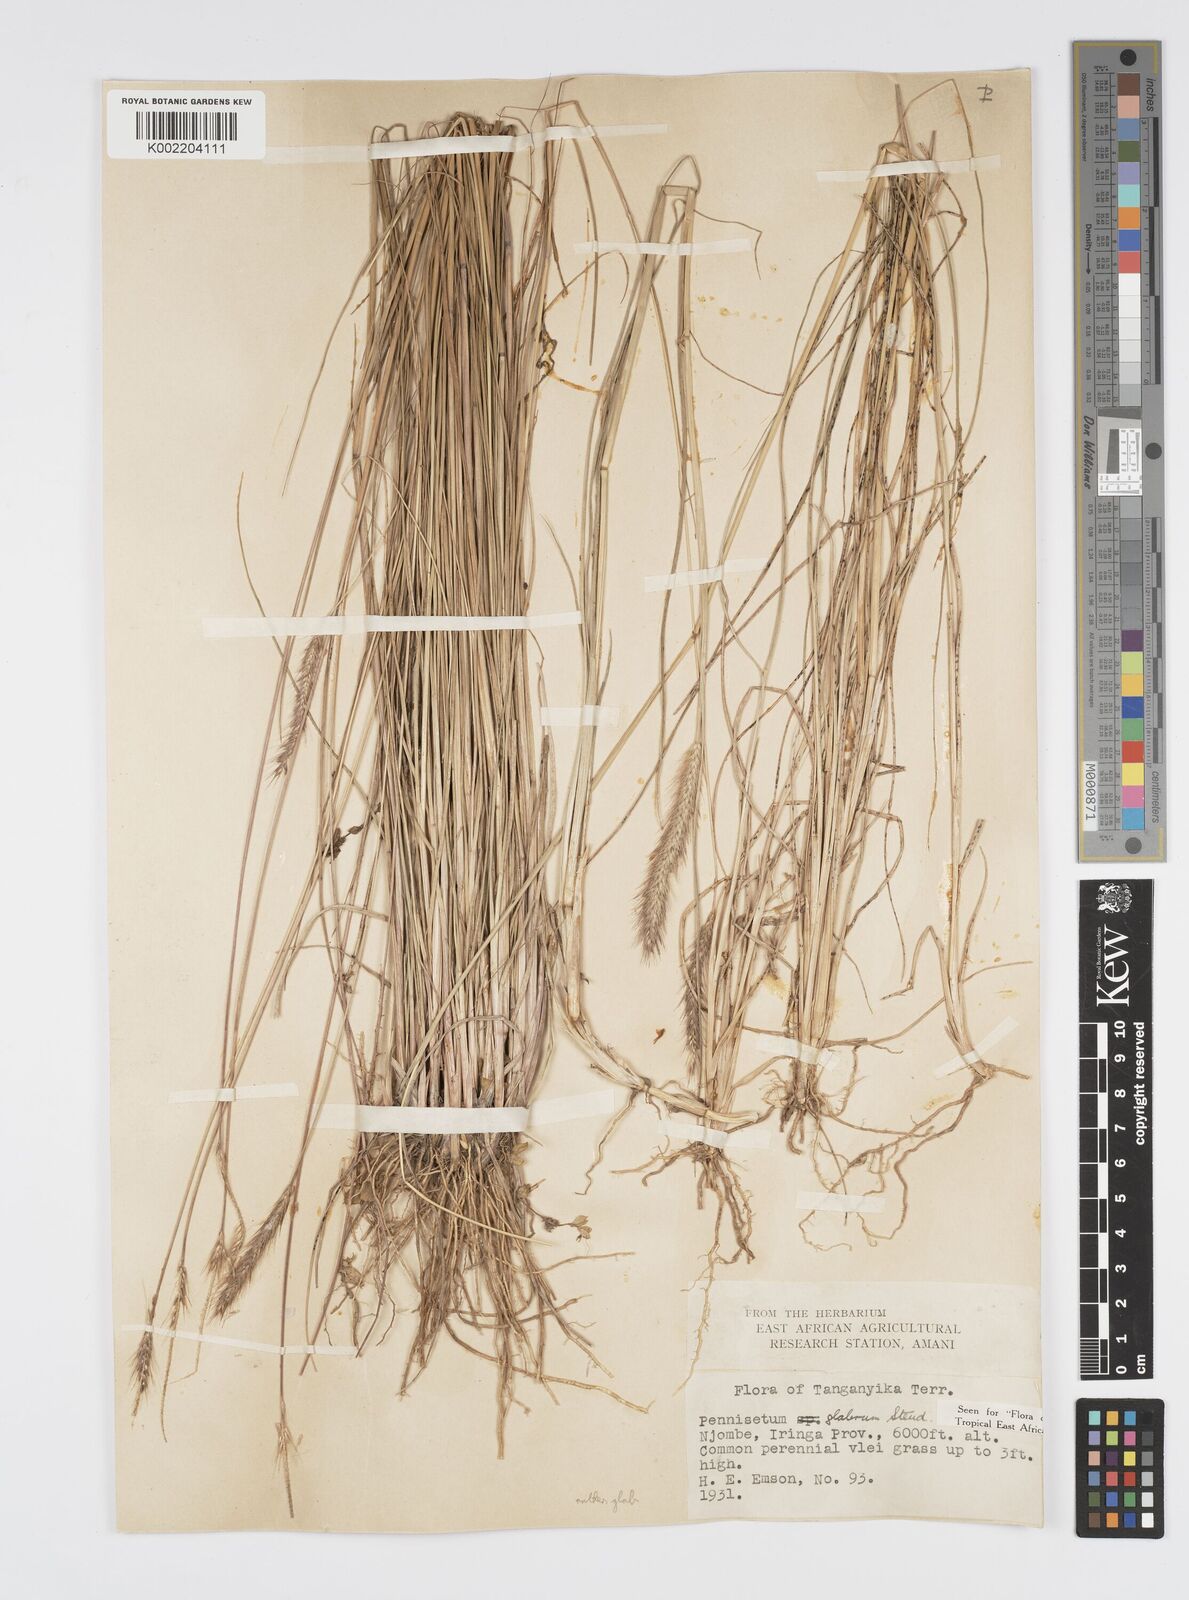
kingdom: Plantae
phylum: Tracheophyta
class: Liliopsida
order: Poales
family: Poaceae
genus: Cenchrus
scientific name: Cenchrus geniculatus
